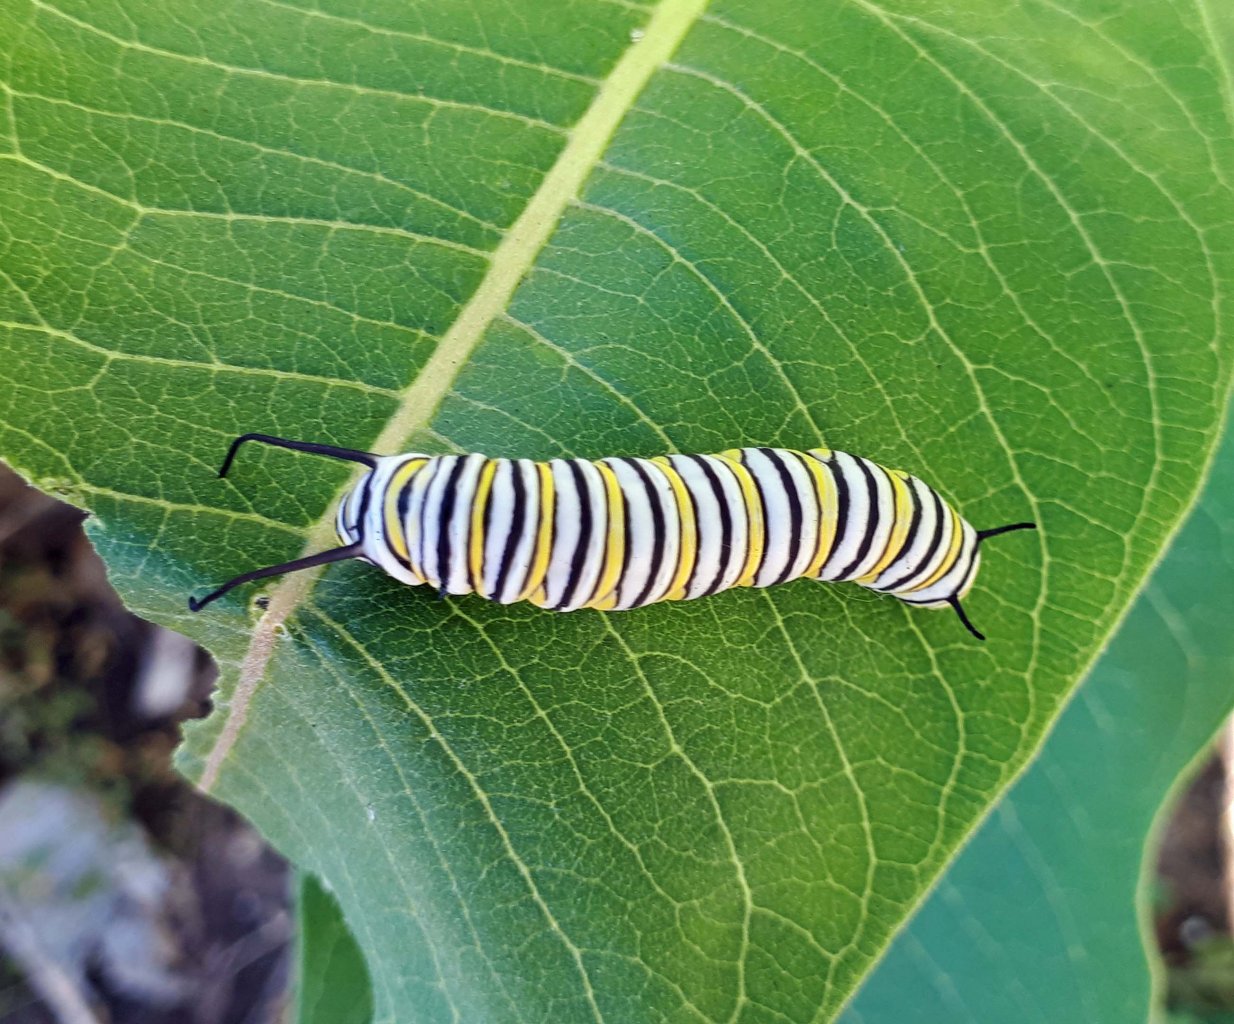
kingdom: Animalia
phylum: Arthropoda
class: Insecta
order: Lepidoptera
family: Nymphalidae
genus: Danaus
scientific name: Danaus plexippus
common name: Monarch
